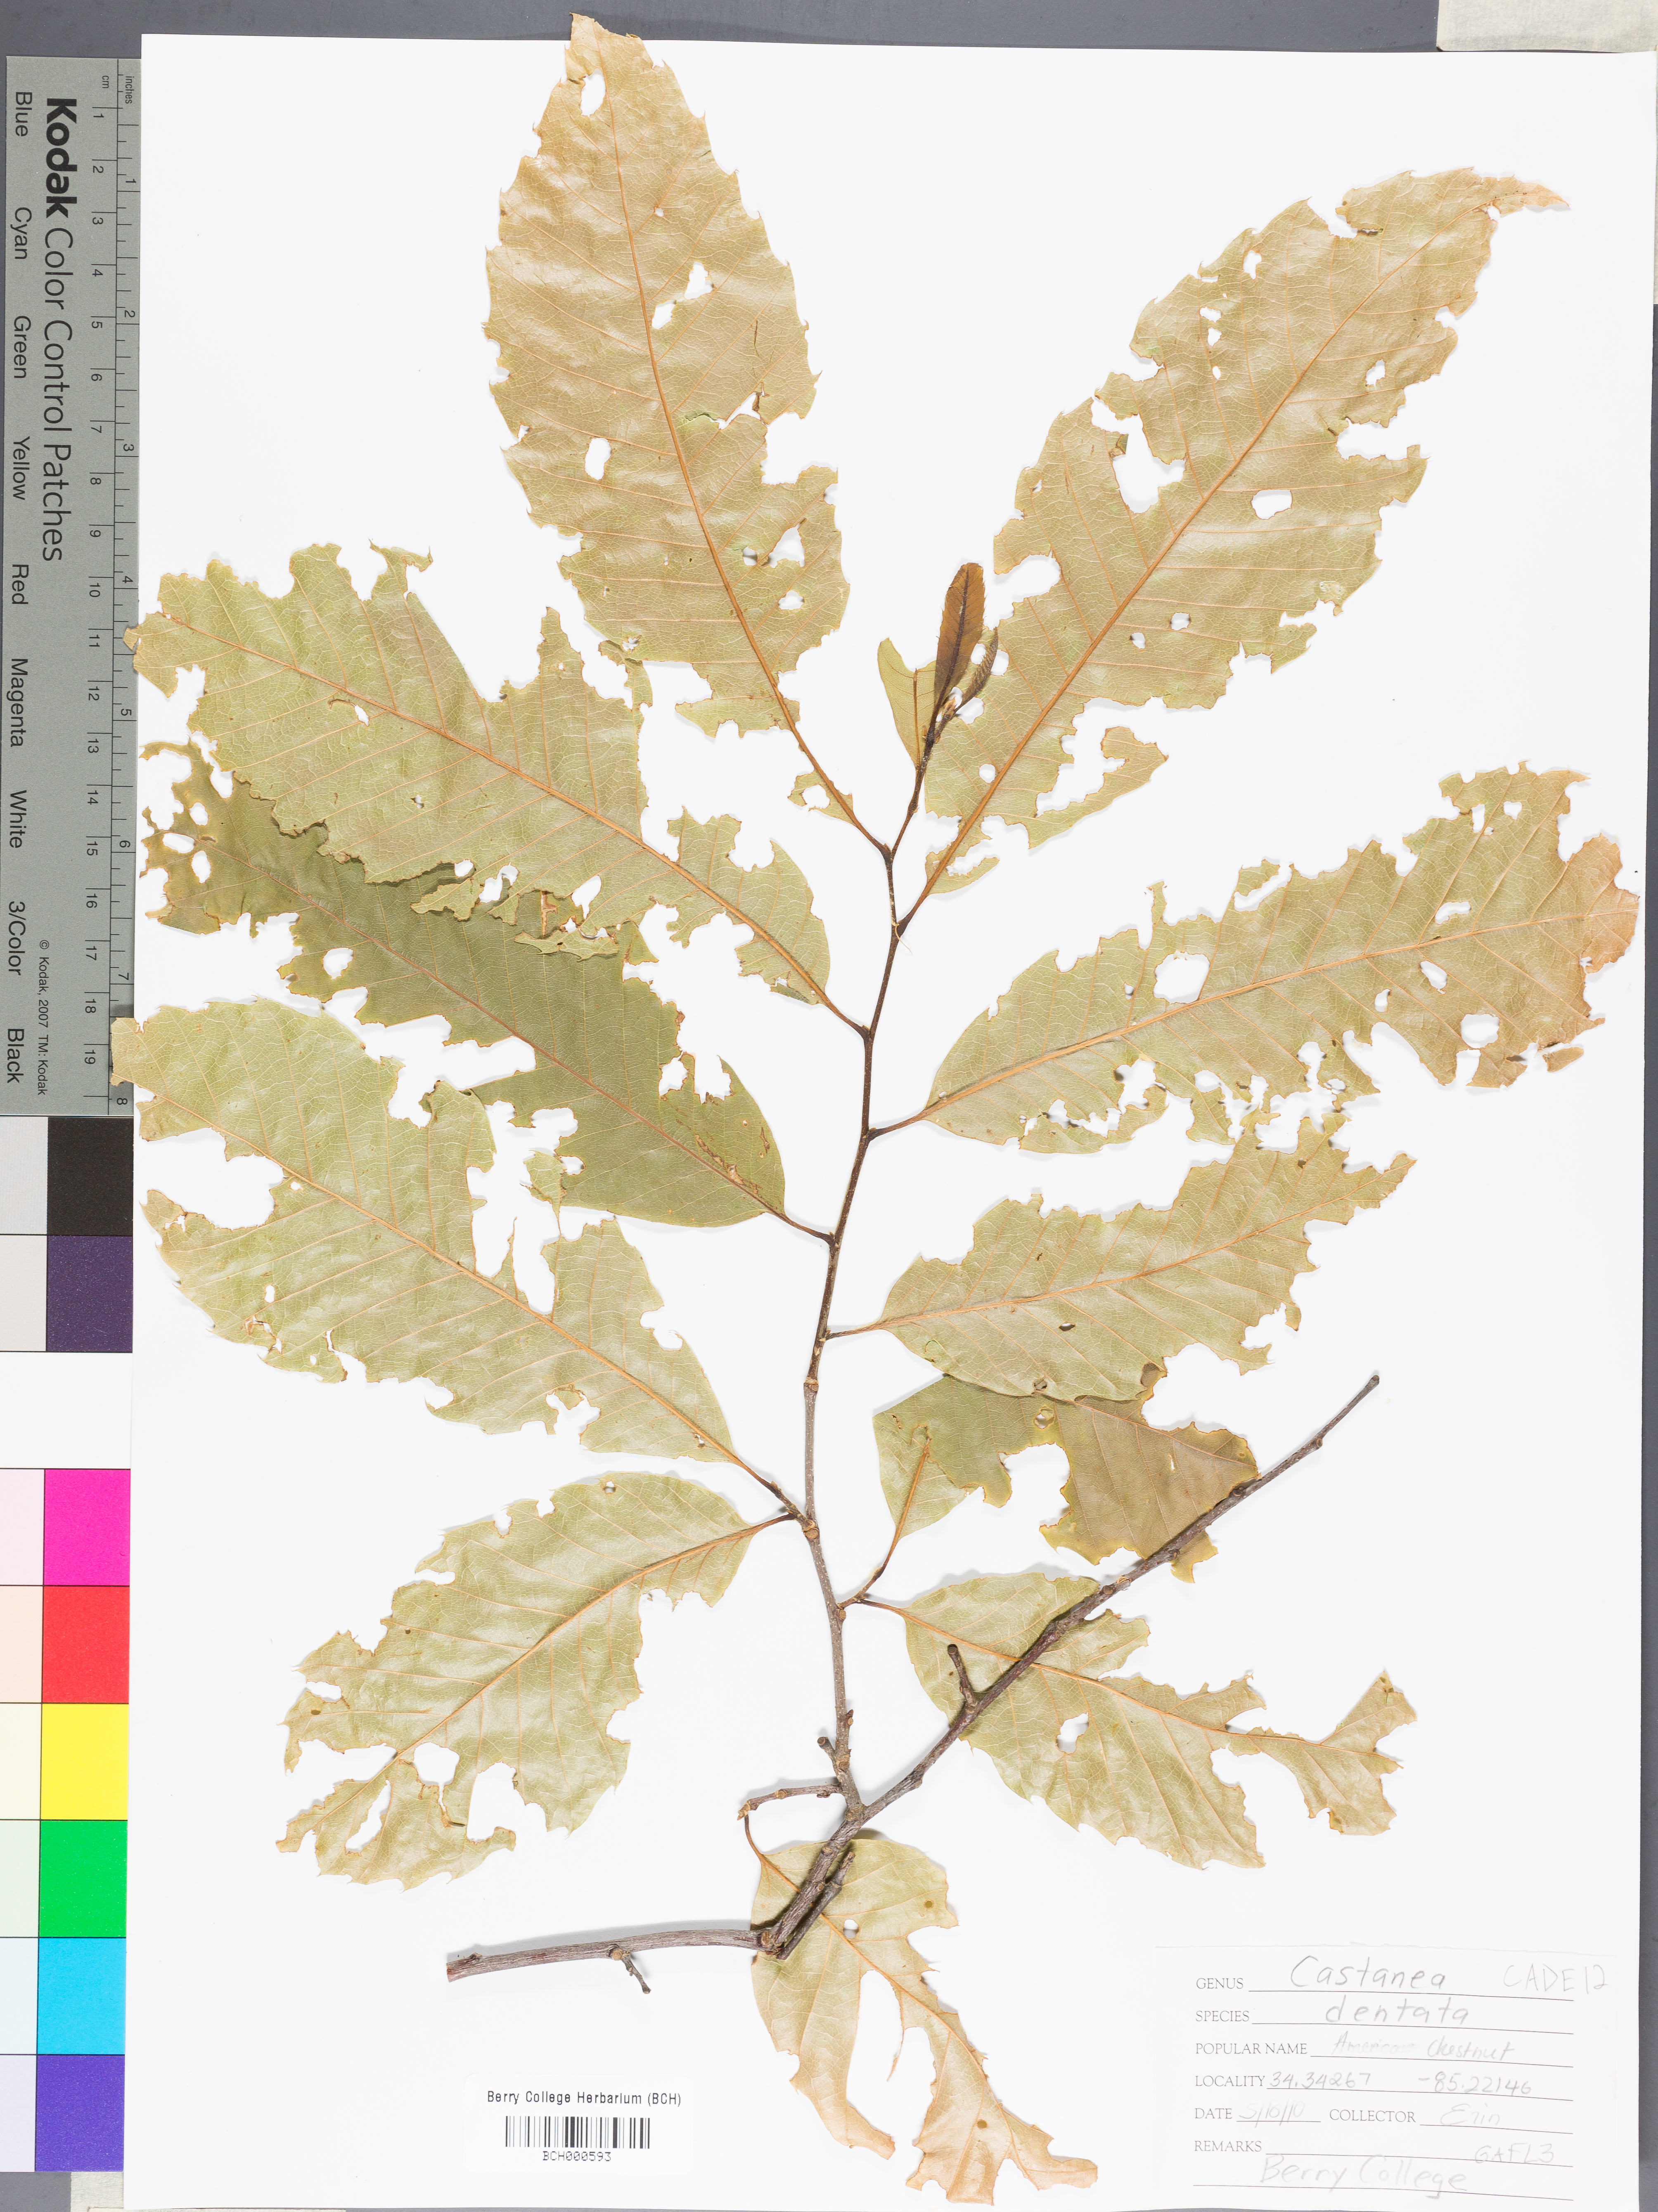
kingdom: Plantae
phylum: Tracheophyta
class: Magnoliopsida
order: Fagales
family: Fagaceae
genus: Castanea
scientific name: Castanea dentata
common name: American chestnut
